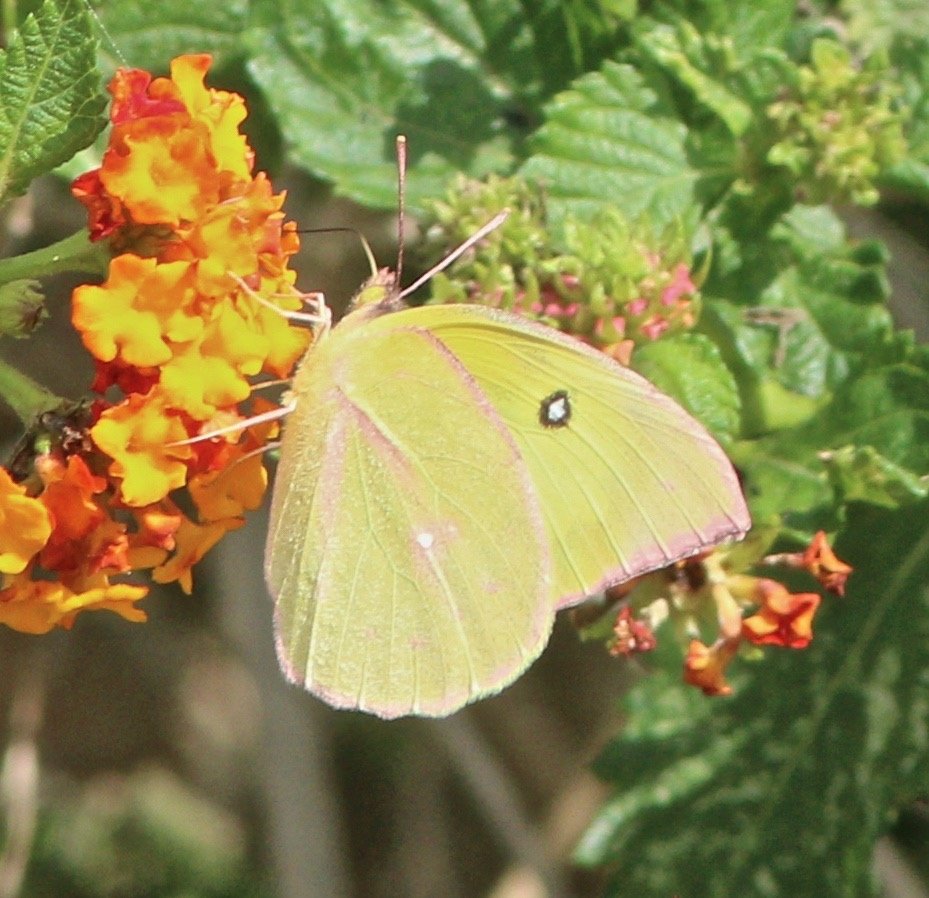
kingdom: Animalia
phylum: Arthropoda
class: Insecta
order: Lepidoptera
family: Pieridae
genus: Zerene
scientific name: Zerene cesonia
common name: Southern Dogface
